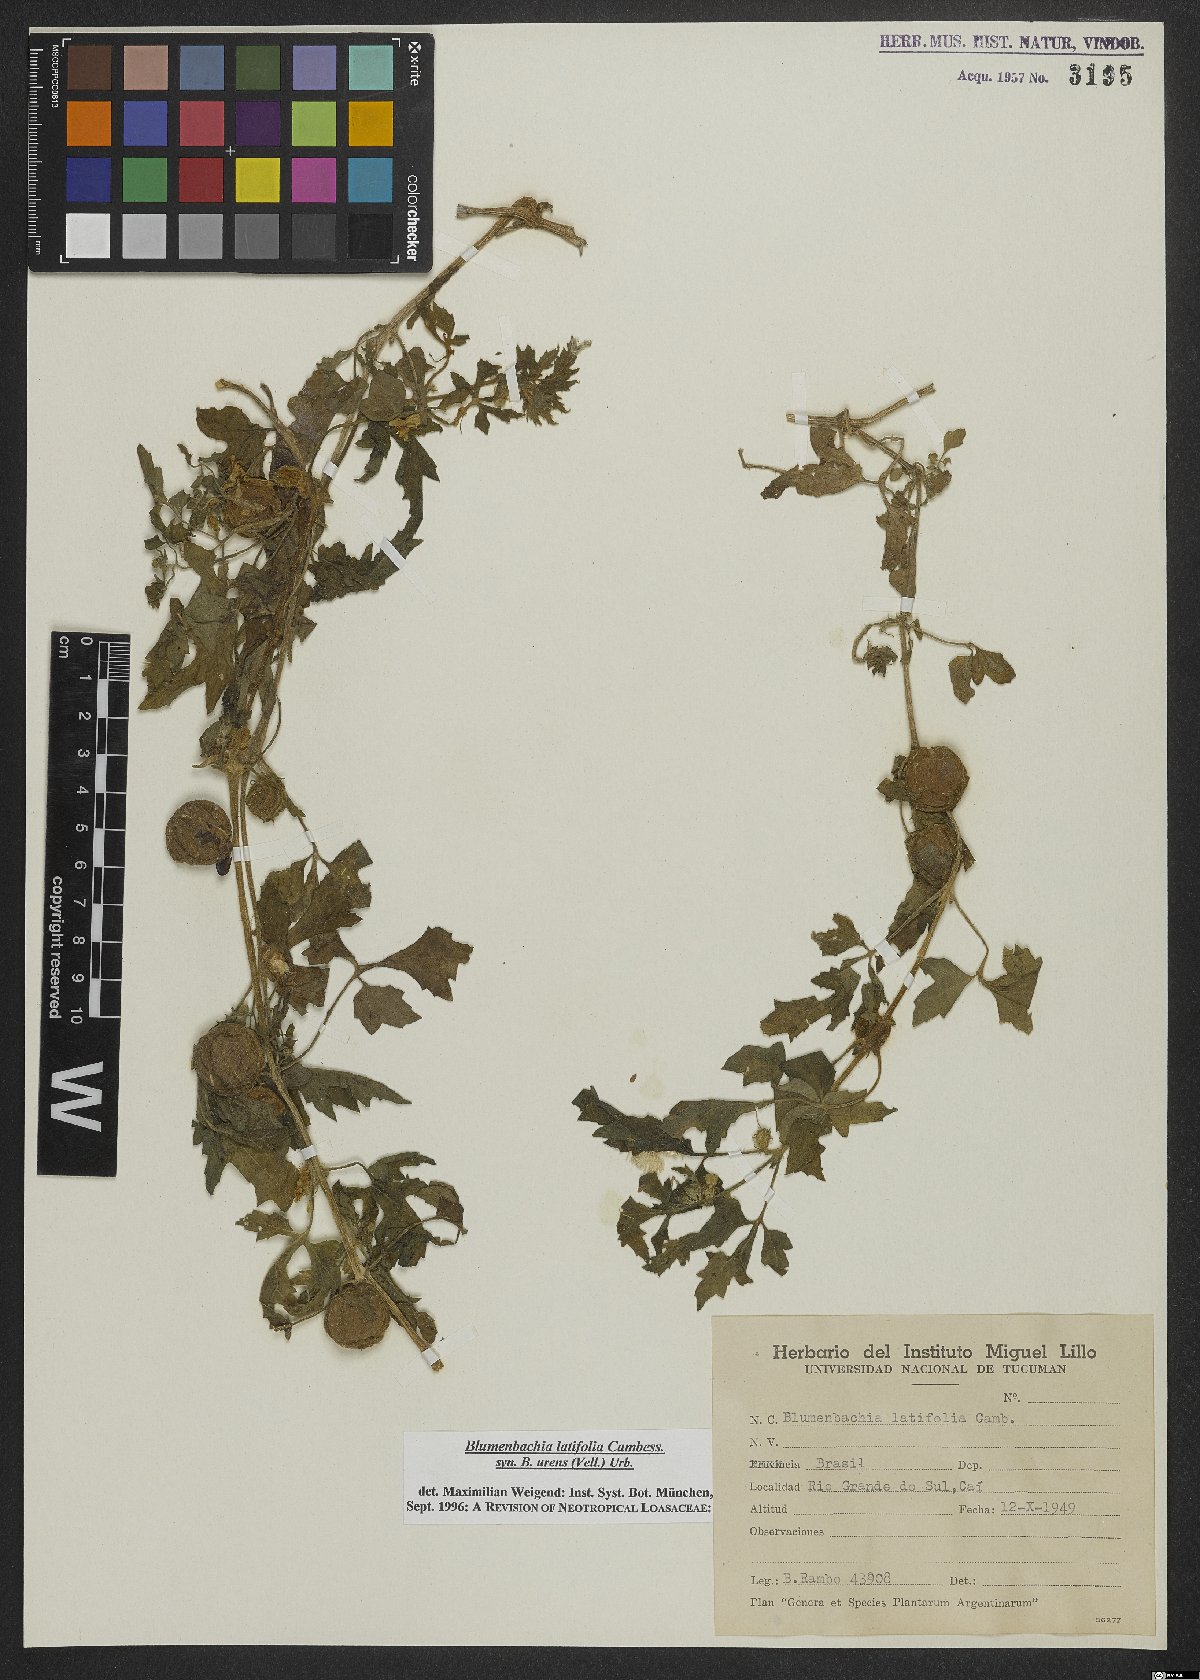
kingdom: Plantae
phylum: Tracheophyta
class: Magnoliopsida
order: Cornales
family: Loasaceae
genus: Blumenbachia
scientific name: Blumenbachia latifolia
